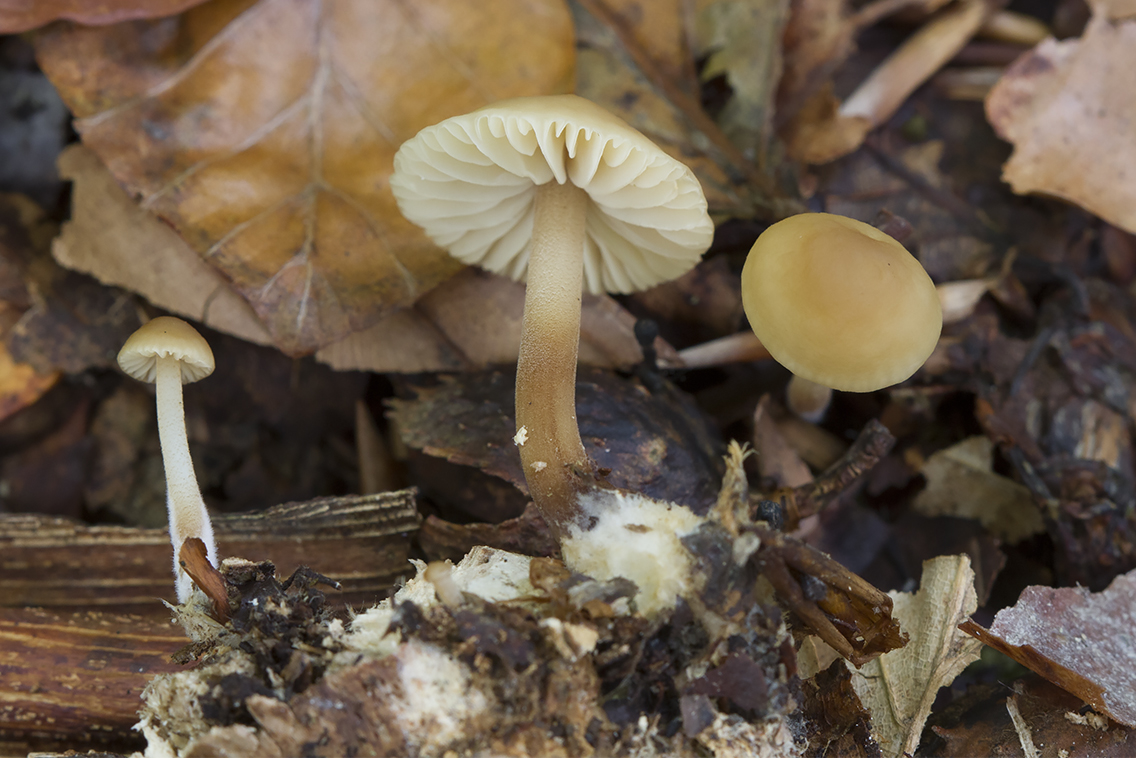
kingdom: Fungi
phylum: Basidiomycota
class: Agaricomycetes
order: Agaricales
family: Marasmiaceae
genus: Marasmius
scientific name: Marasmius torquescens
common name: filtfodet bruskhat
